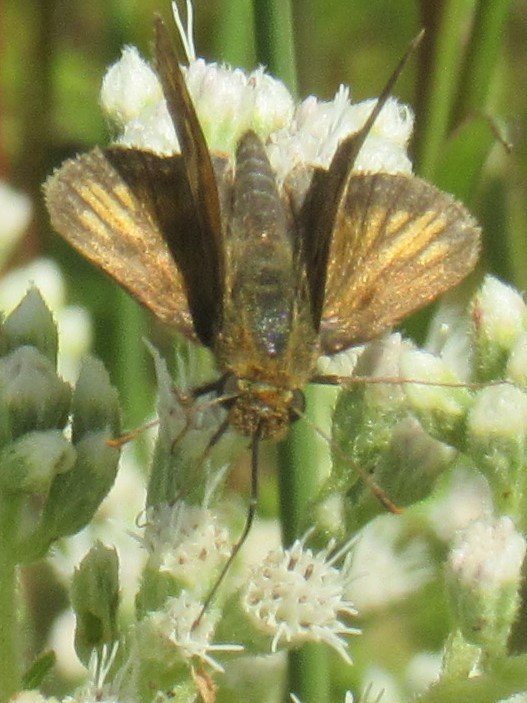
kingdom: Animalia
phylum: Arthropoda
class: Insecta
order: Lepidoptera
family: Hesperiidae
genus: Polites
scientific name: Polites coras
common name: Peck's Skipper
